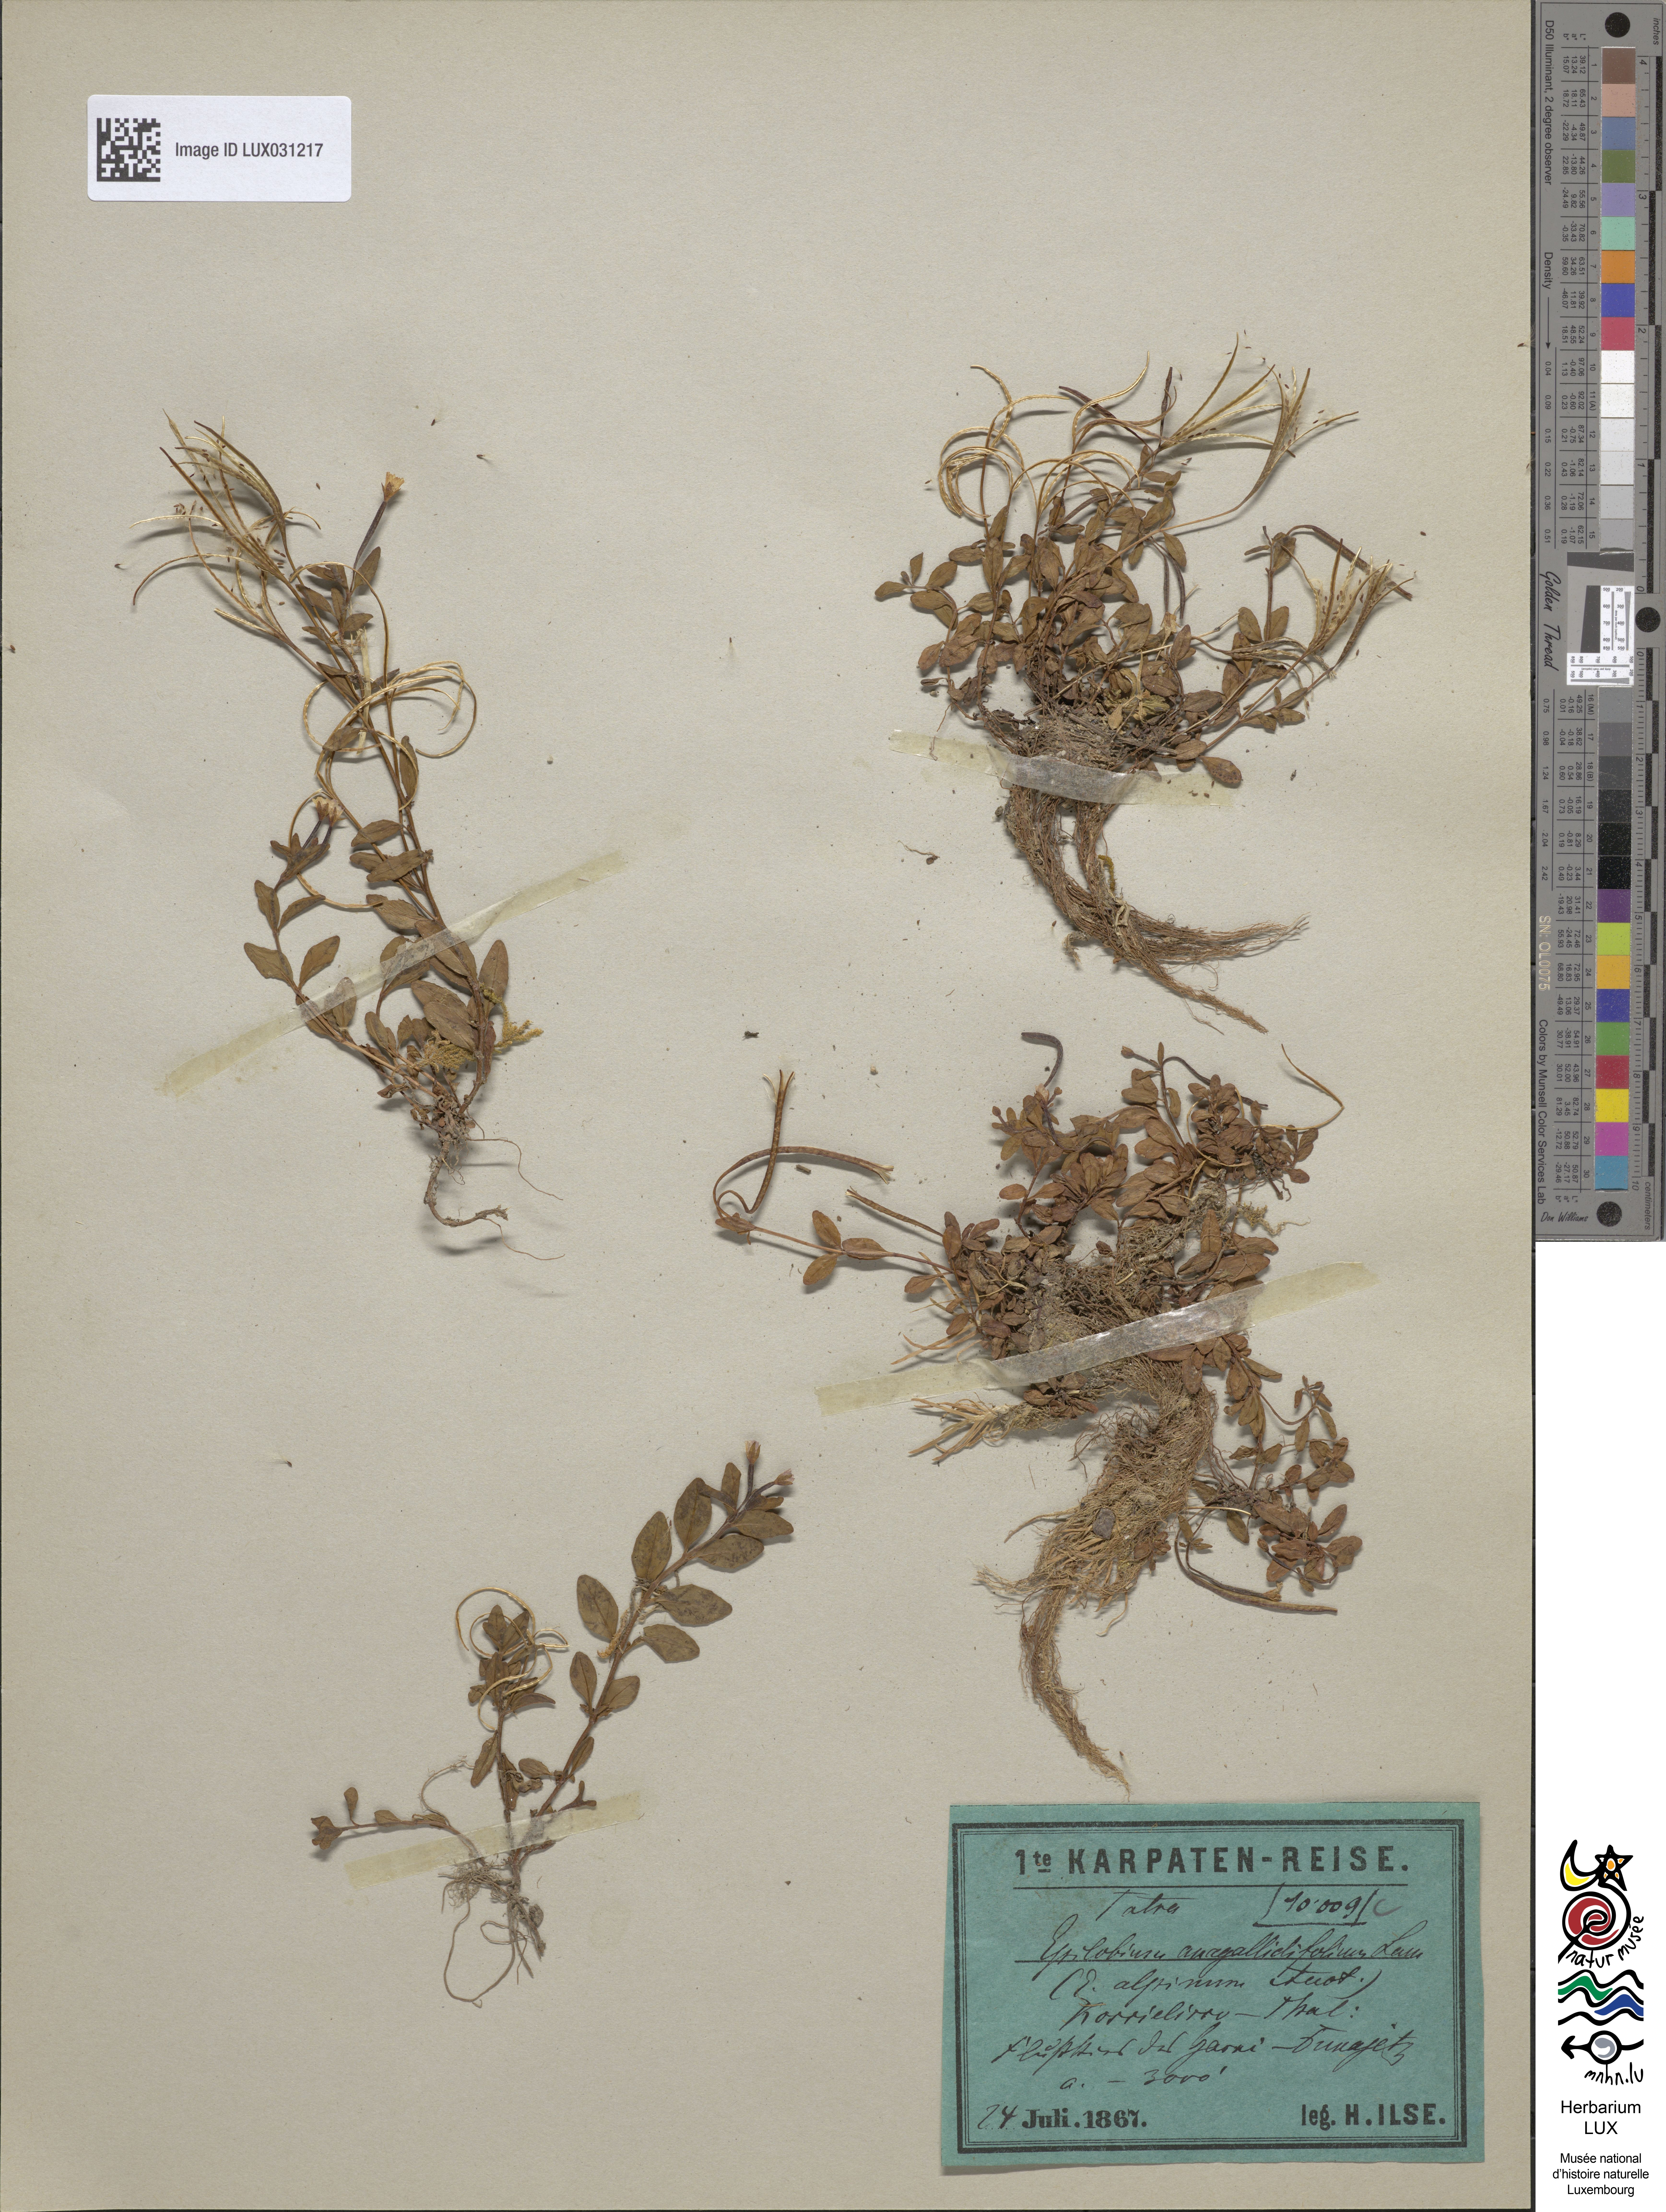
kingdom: Plantae
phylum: Tracheophyta
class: Magnoliopsida
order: Myrtales
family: Onagraceae
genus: Epilobium
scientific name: Epilobium
